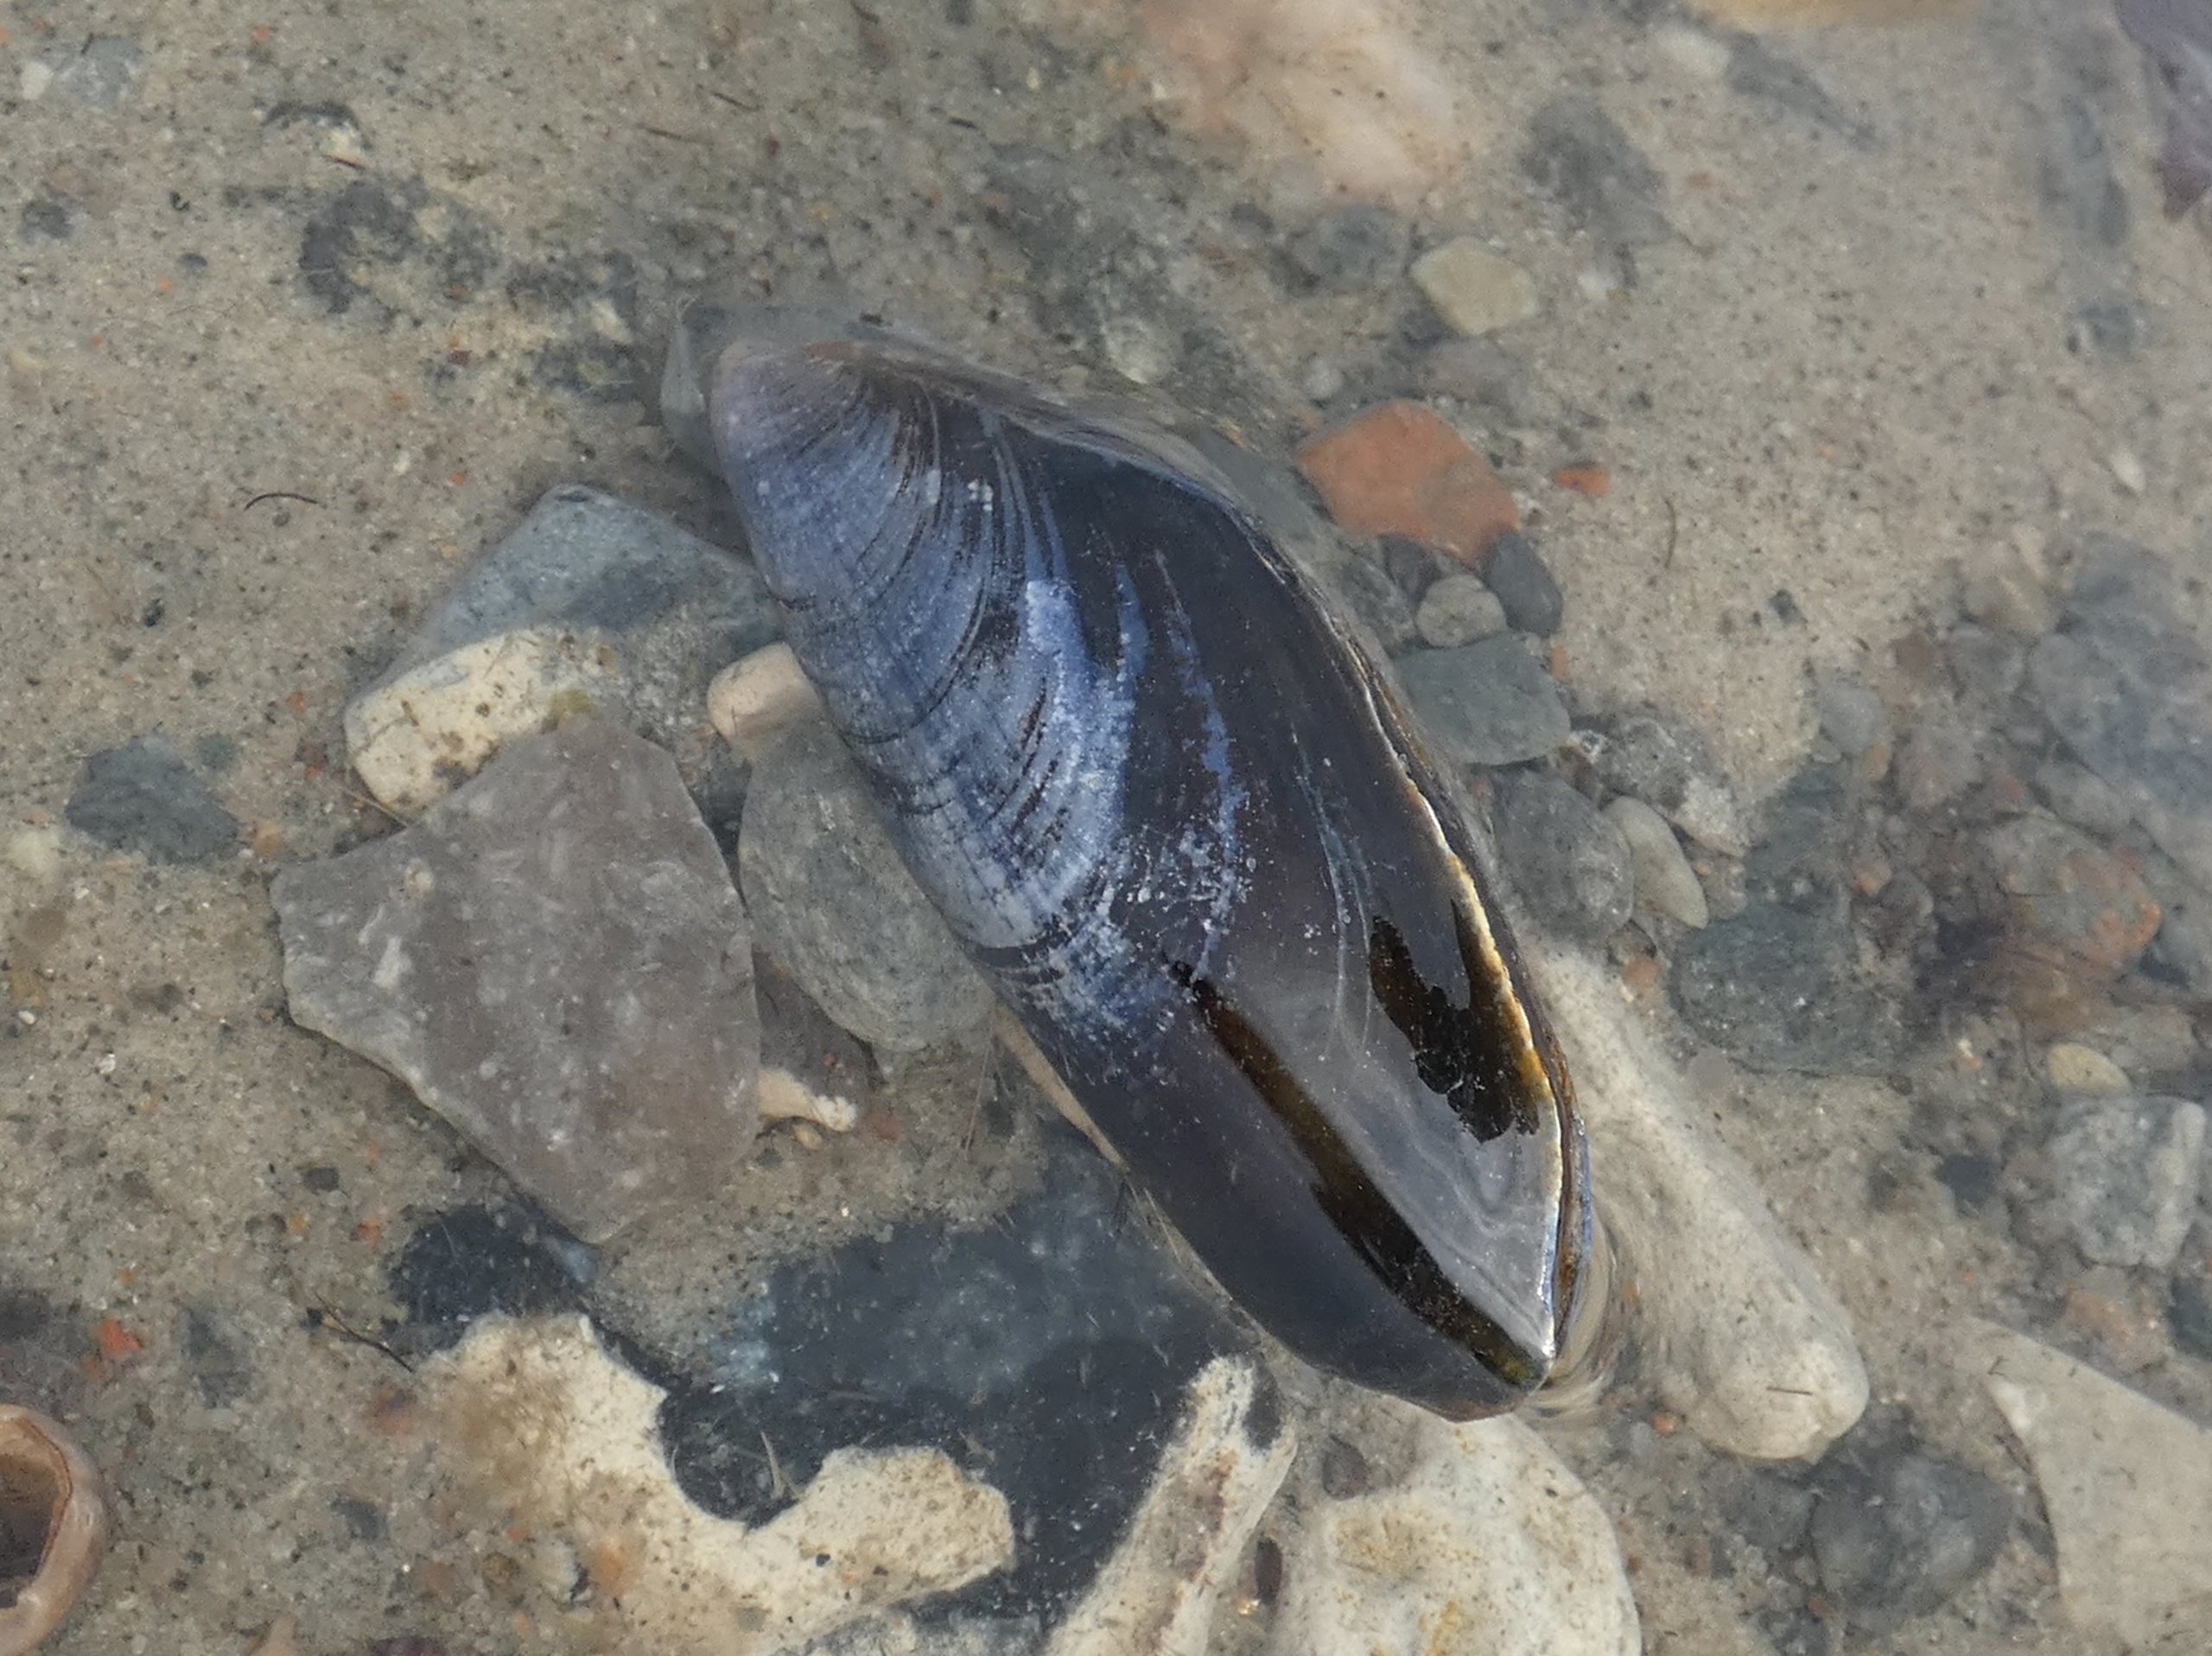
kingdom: Animalia
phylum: Mollusca
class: Bivalvia
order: Mytilida
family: Mytilidae
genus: Mytilus
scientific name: Mytilus edulis
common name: Blåmusling
